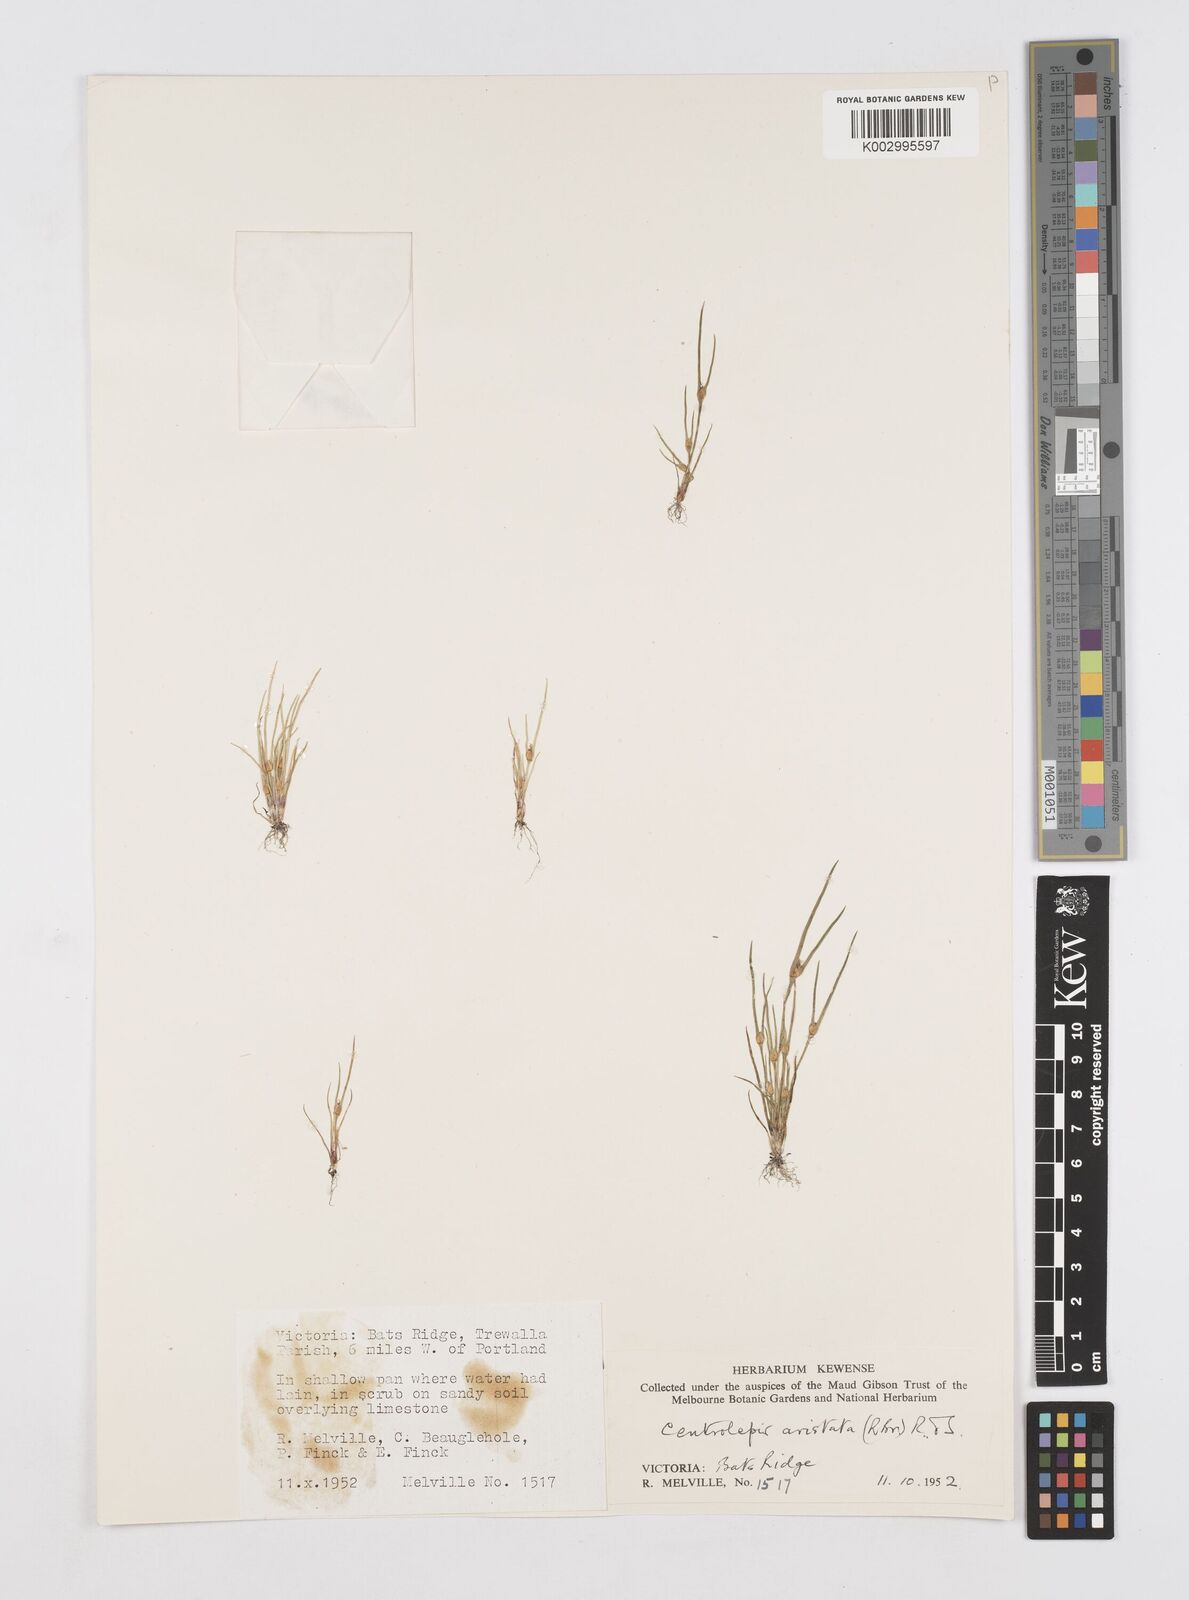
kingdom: Plantae
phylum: Tracheophyta
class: Liliopsida
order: Poales
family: Restionaceae
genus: Centrolepis
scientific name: Centrolepis aristata
